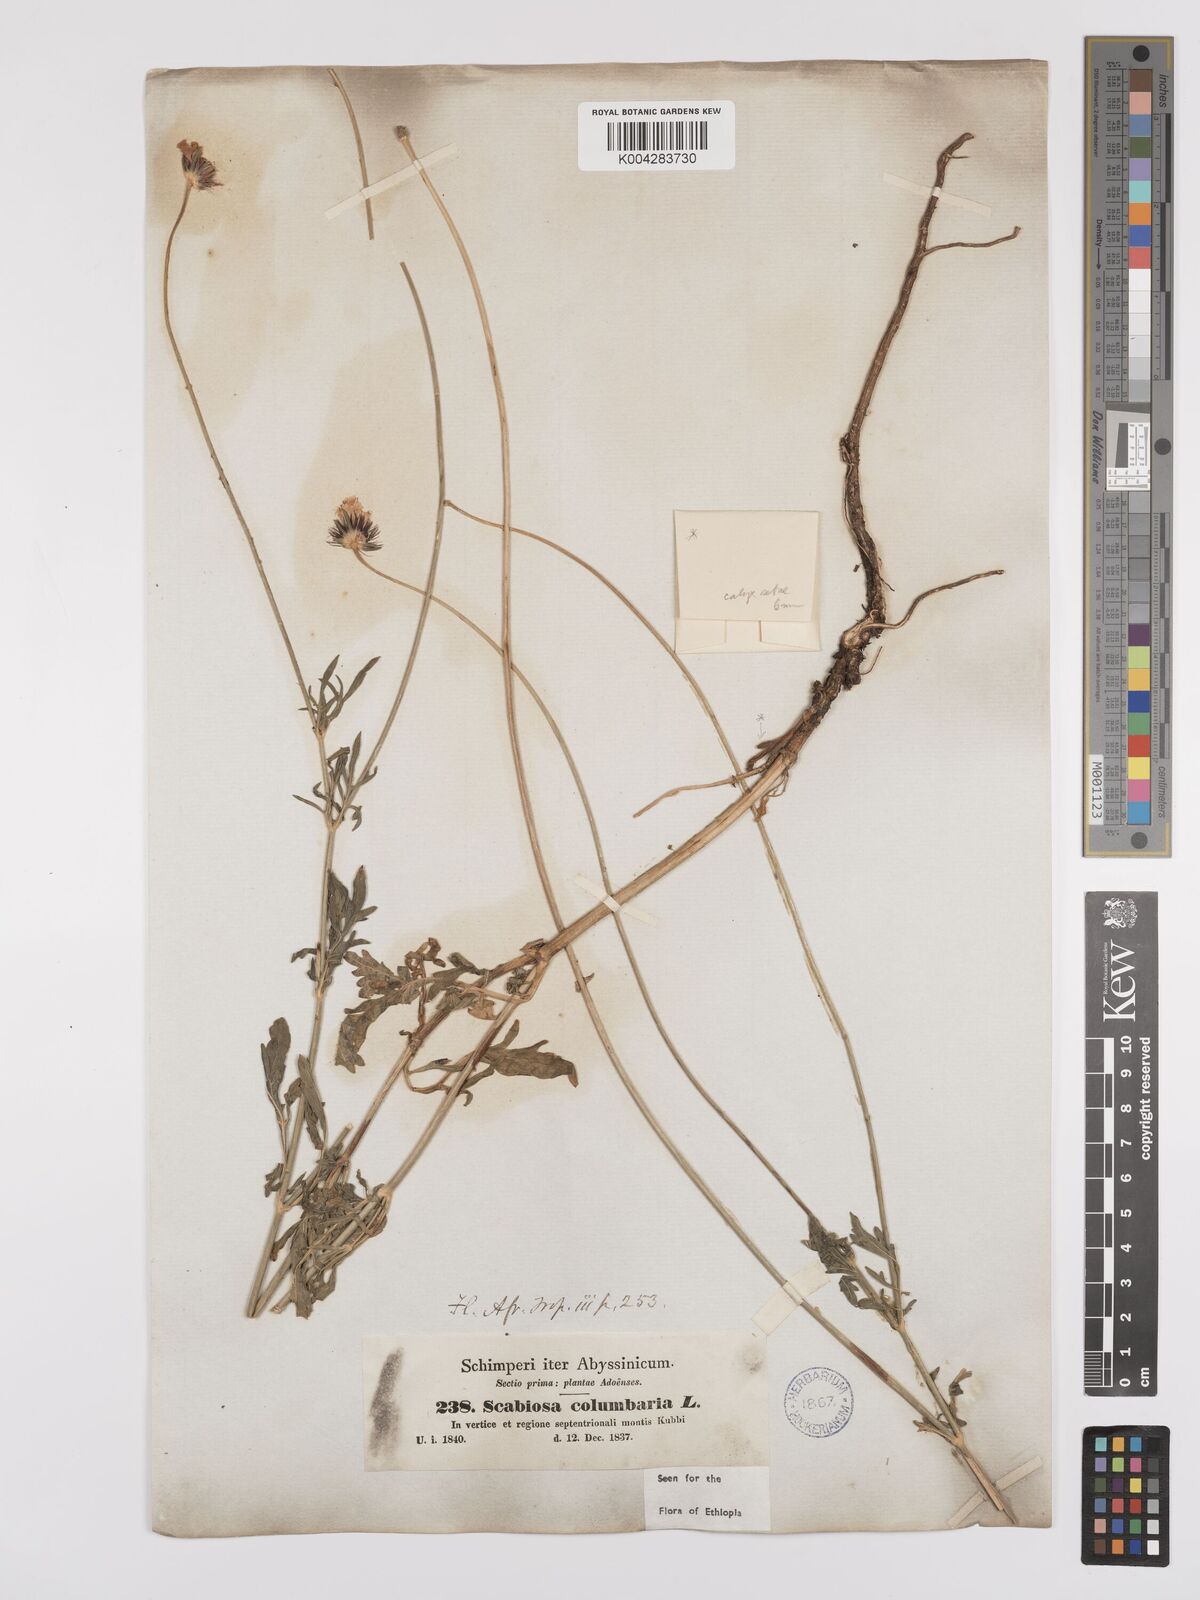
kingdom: Plantae
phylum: Tracheophyta
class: Magnoliopsida
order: Dipsacales
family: Caprifoliaceae
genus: Scabiosa
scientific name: Scabiosa columbaria
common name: Small scabious
